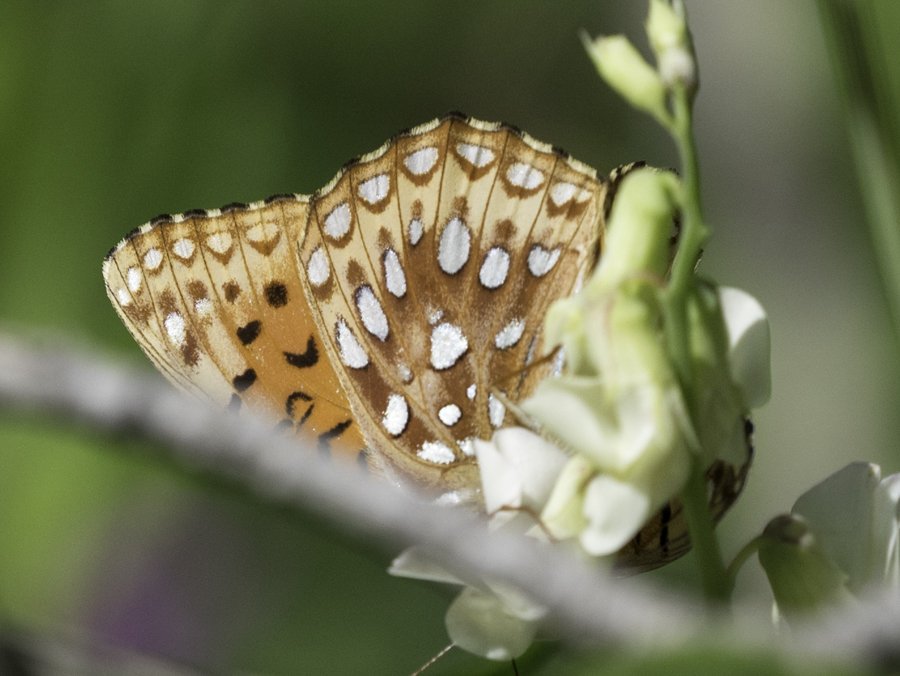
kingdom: Animalia
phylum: Arthropoda
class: Insecta
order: Lepidoptera
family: Nymphalidae
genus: Speyeria
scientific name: Speyeria atlantis
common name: Northwestern Fritillary
